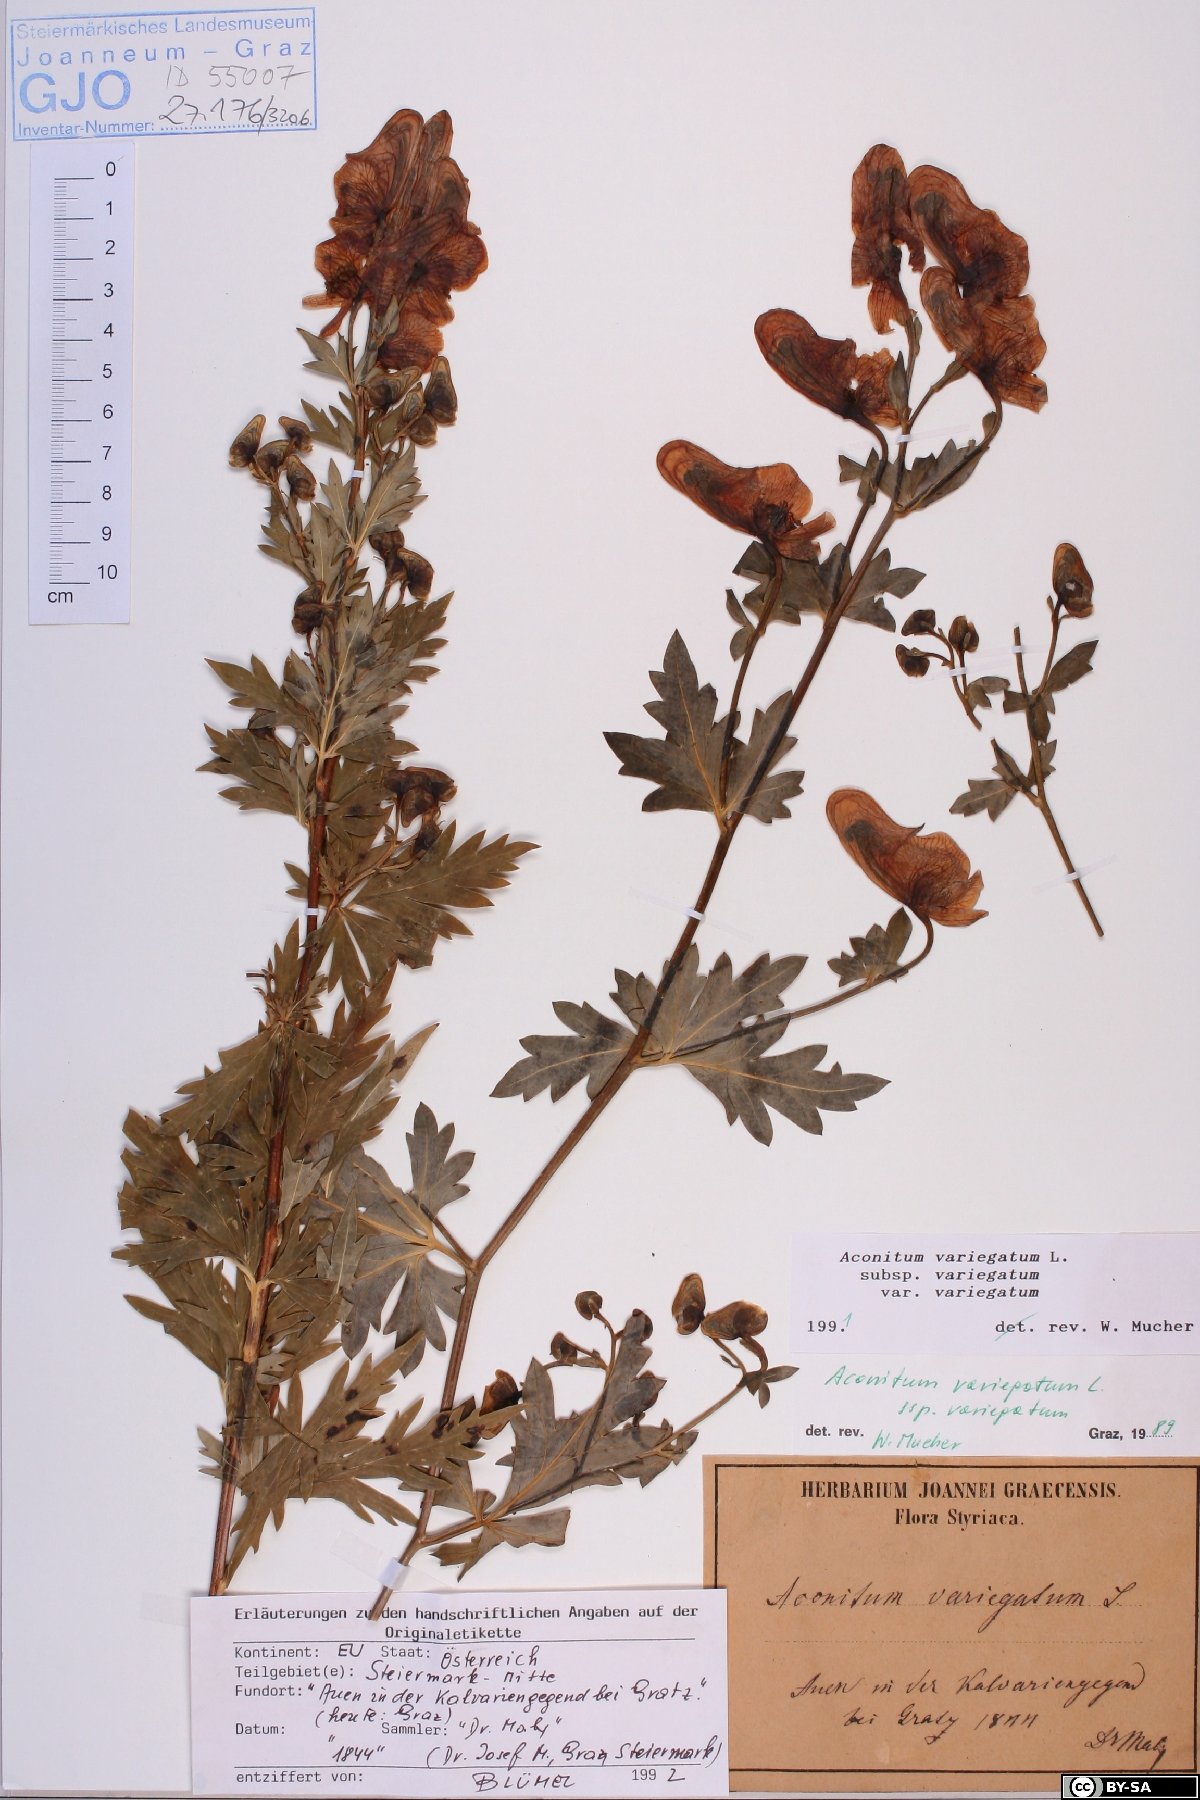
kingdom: Plantae
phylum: Tracheophyta
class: Magnoliopsida
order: Ranunculales
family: Ranunculaceae
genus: Aconitum
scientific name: Aconitum variegatum
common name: Manchurian monkshood
